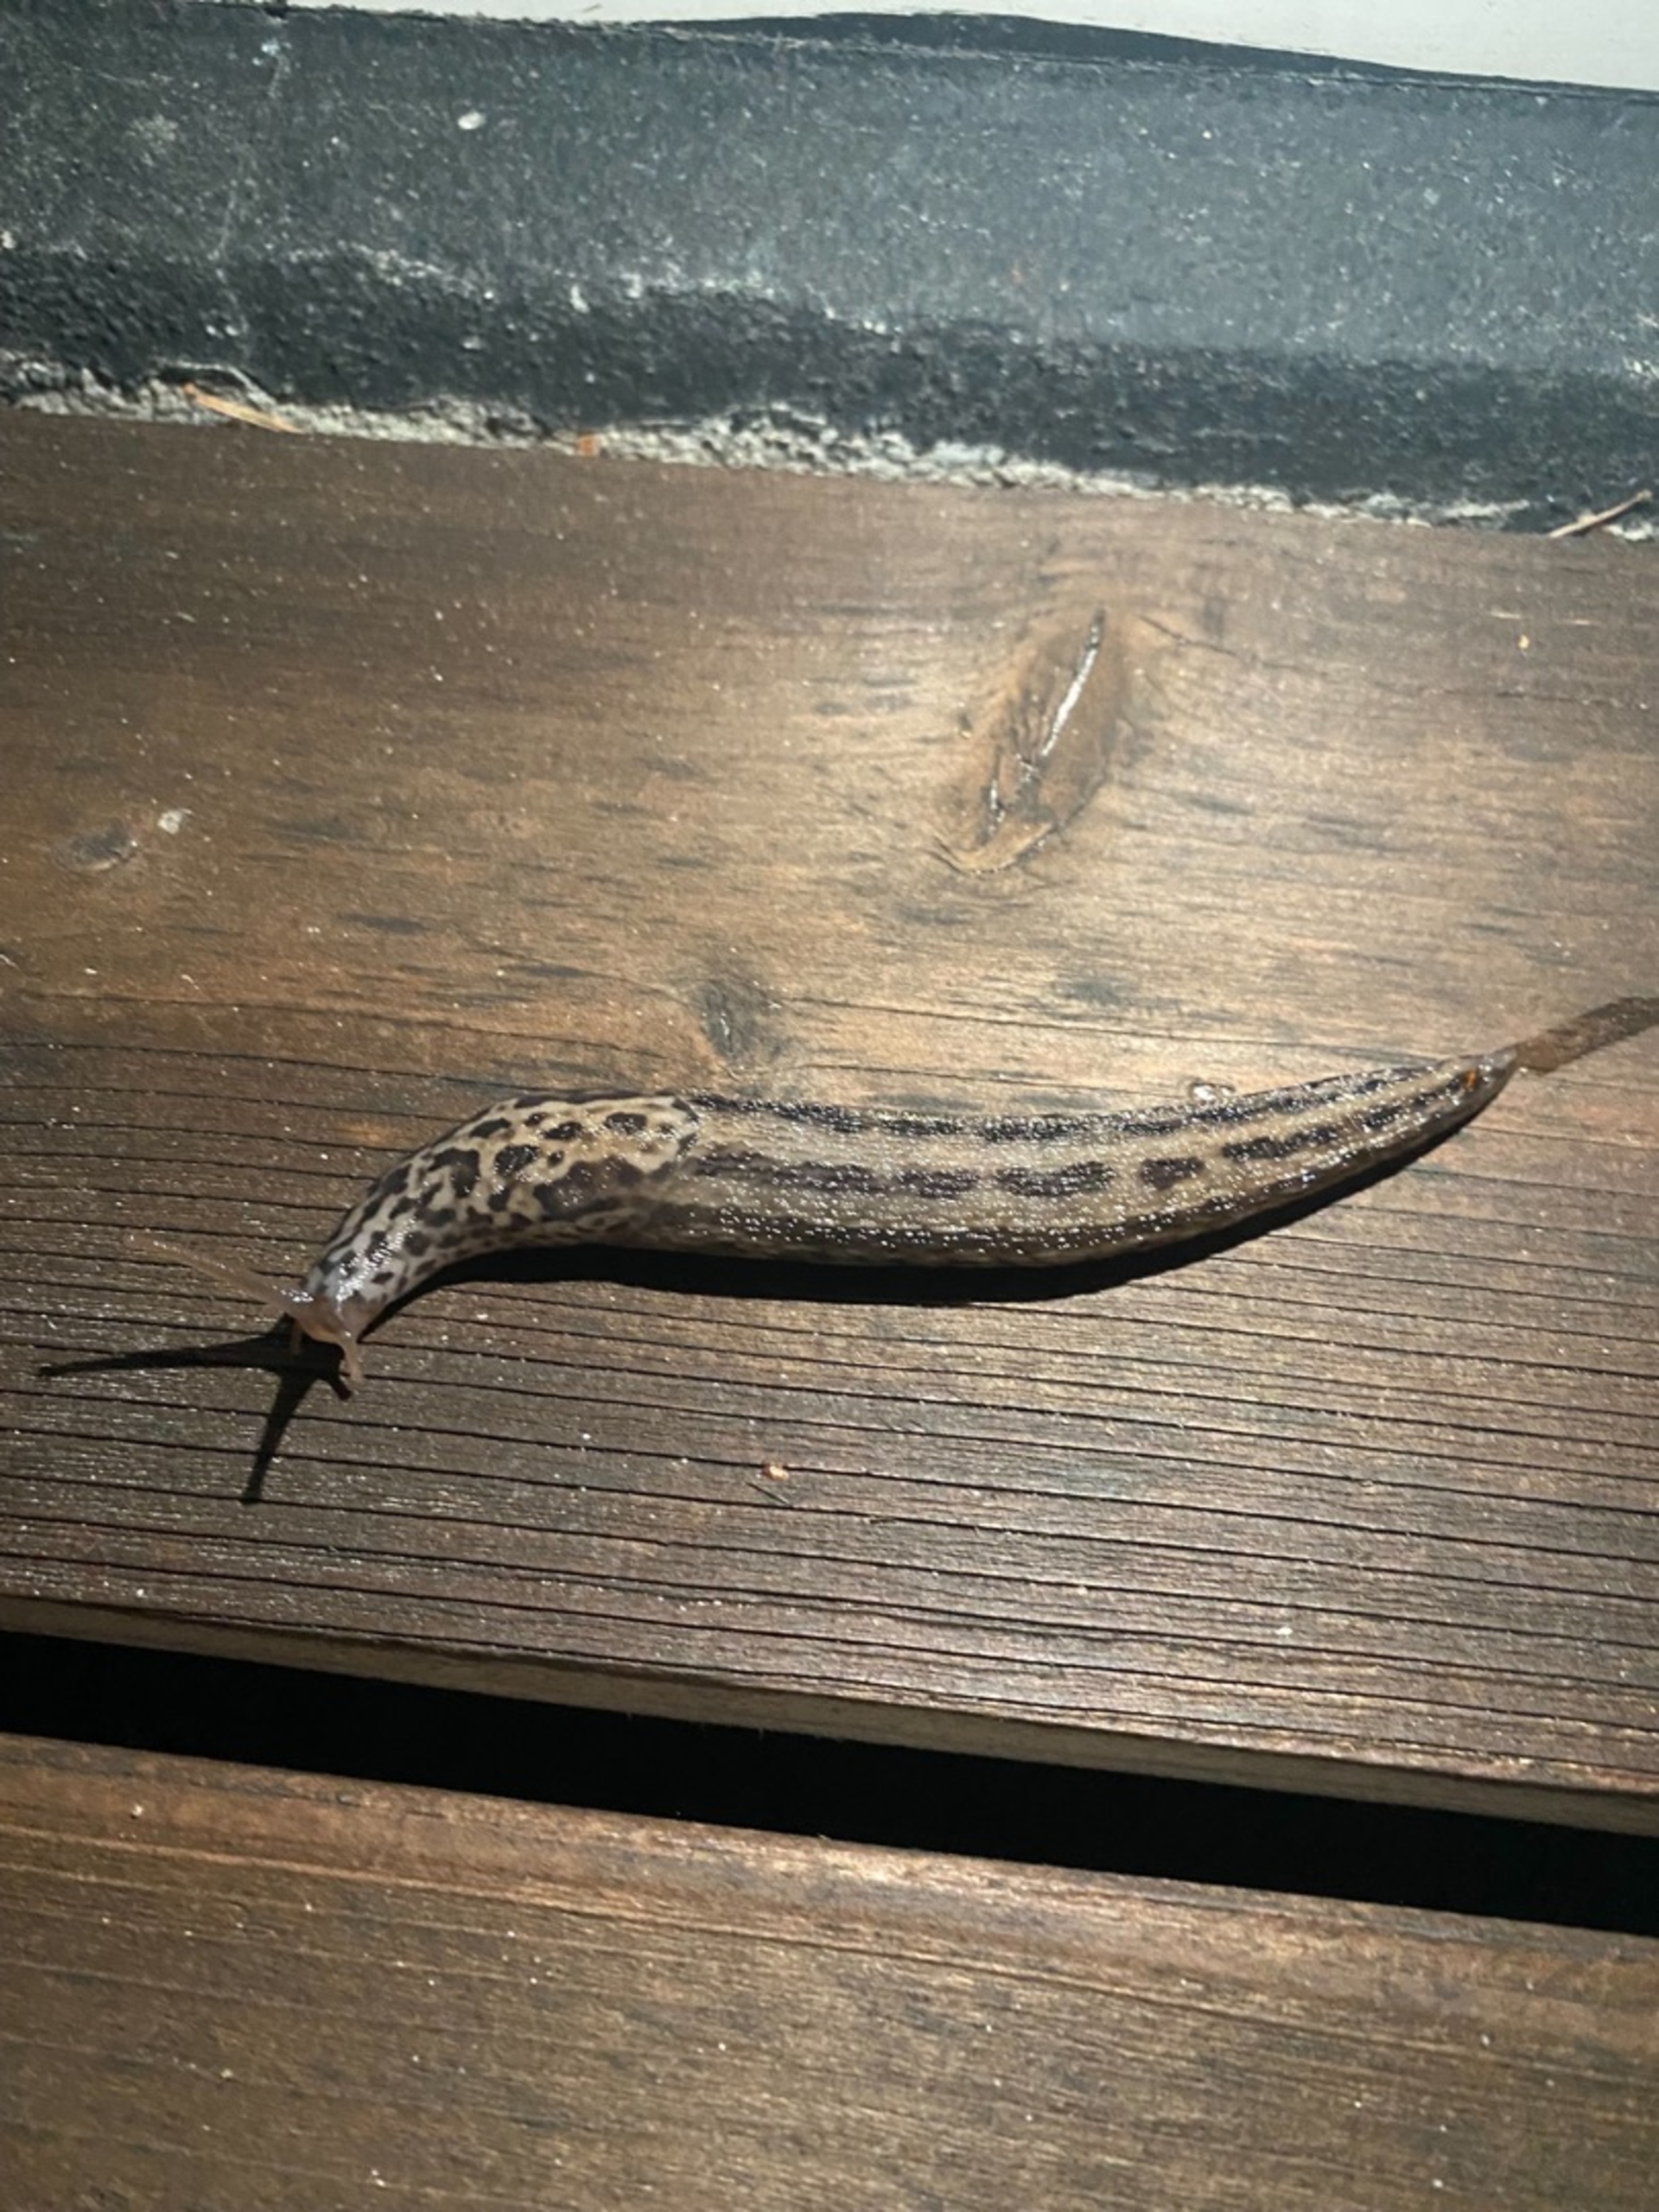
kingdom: Animalia
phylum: Mollusca
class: Gastropoda
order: Stylommatophora
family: Limacidae
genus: Limax
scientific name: Limax maximus
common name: Pantersnegl
